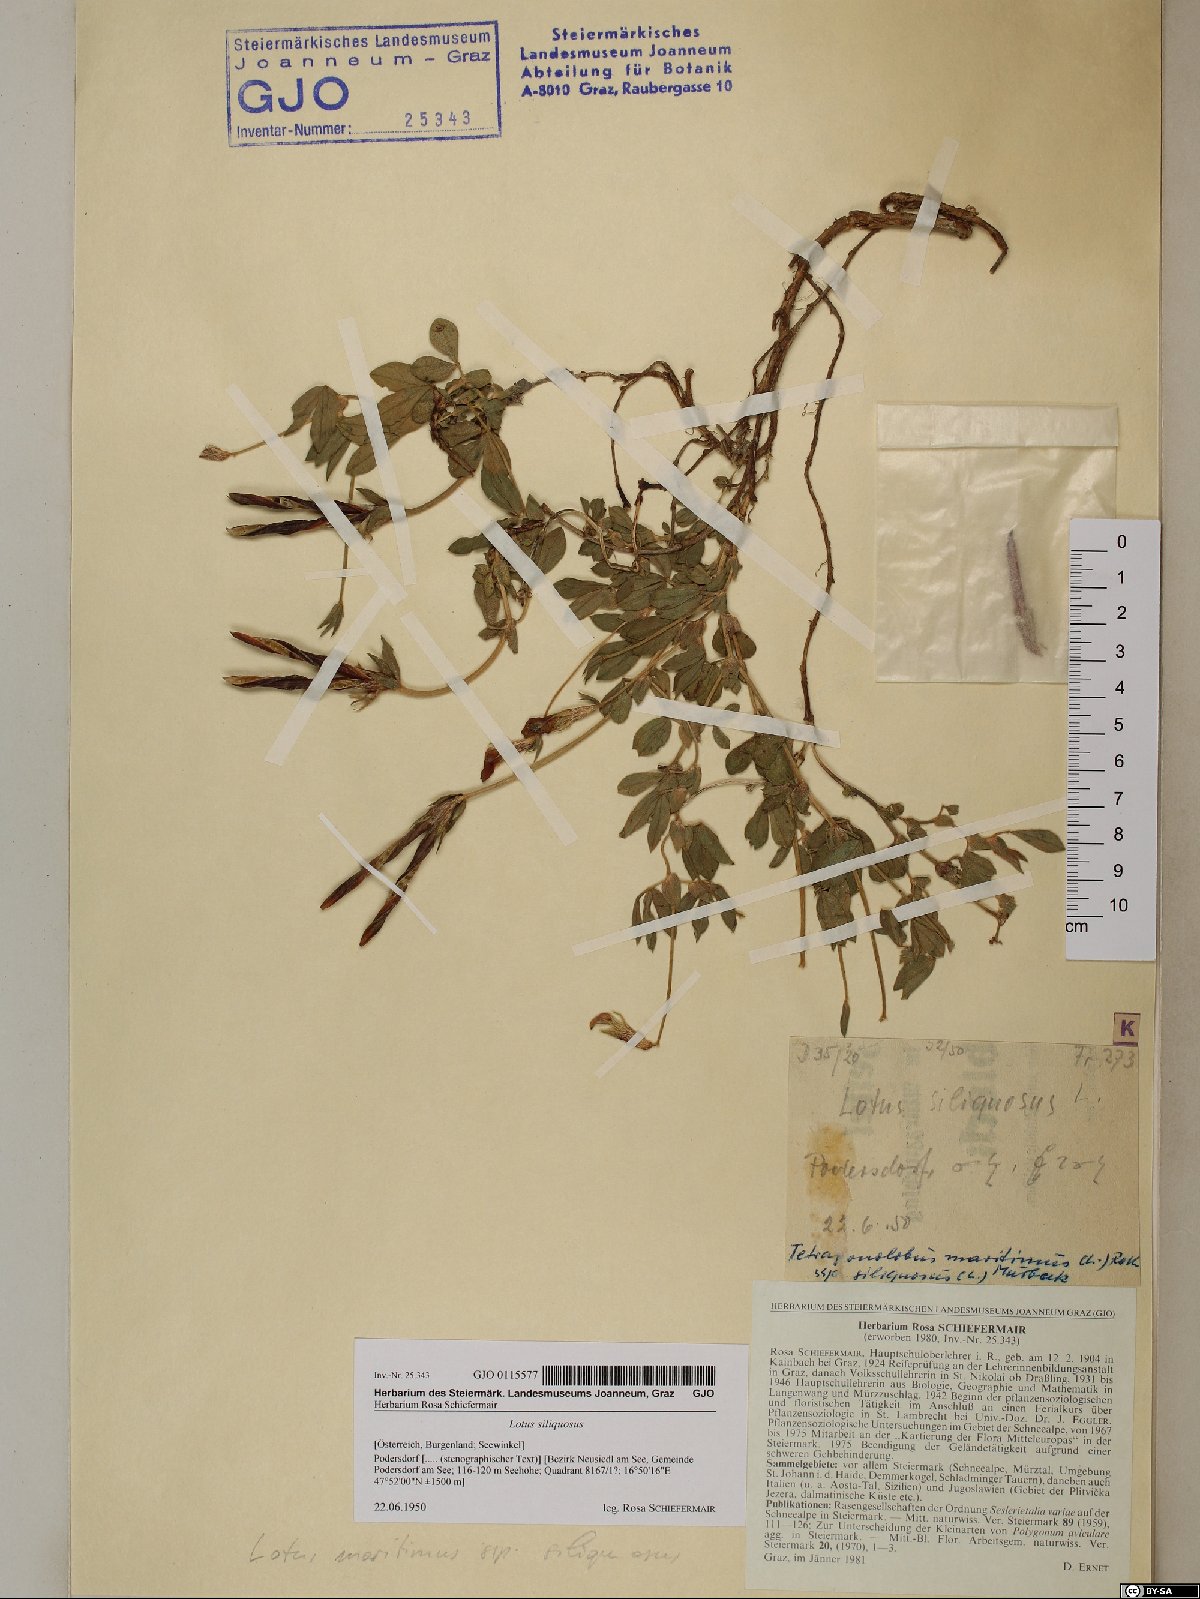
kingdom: Plantae
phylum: Tracheophyta
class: Magnoliopsida
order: Fabales
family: Fabaceae
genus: Lathyrus
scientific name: Lathyrus inconspicuus
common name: Inconspicuous pea
